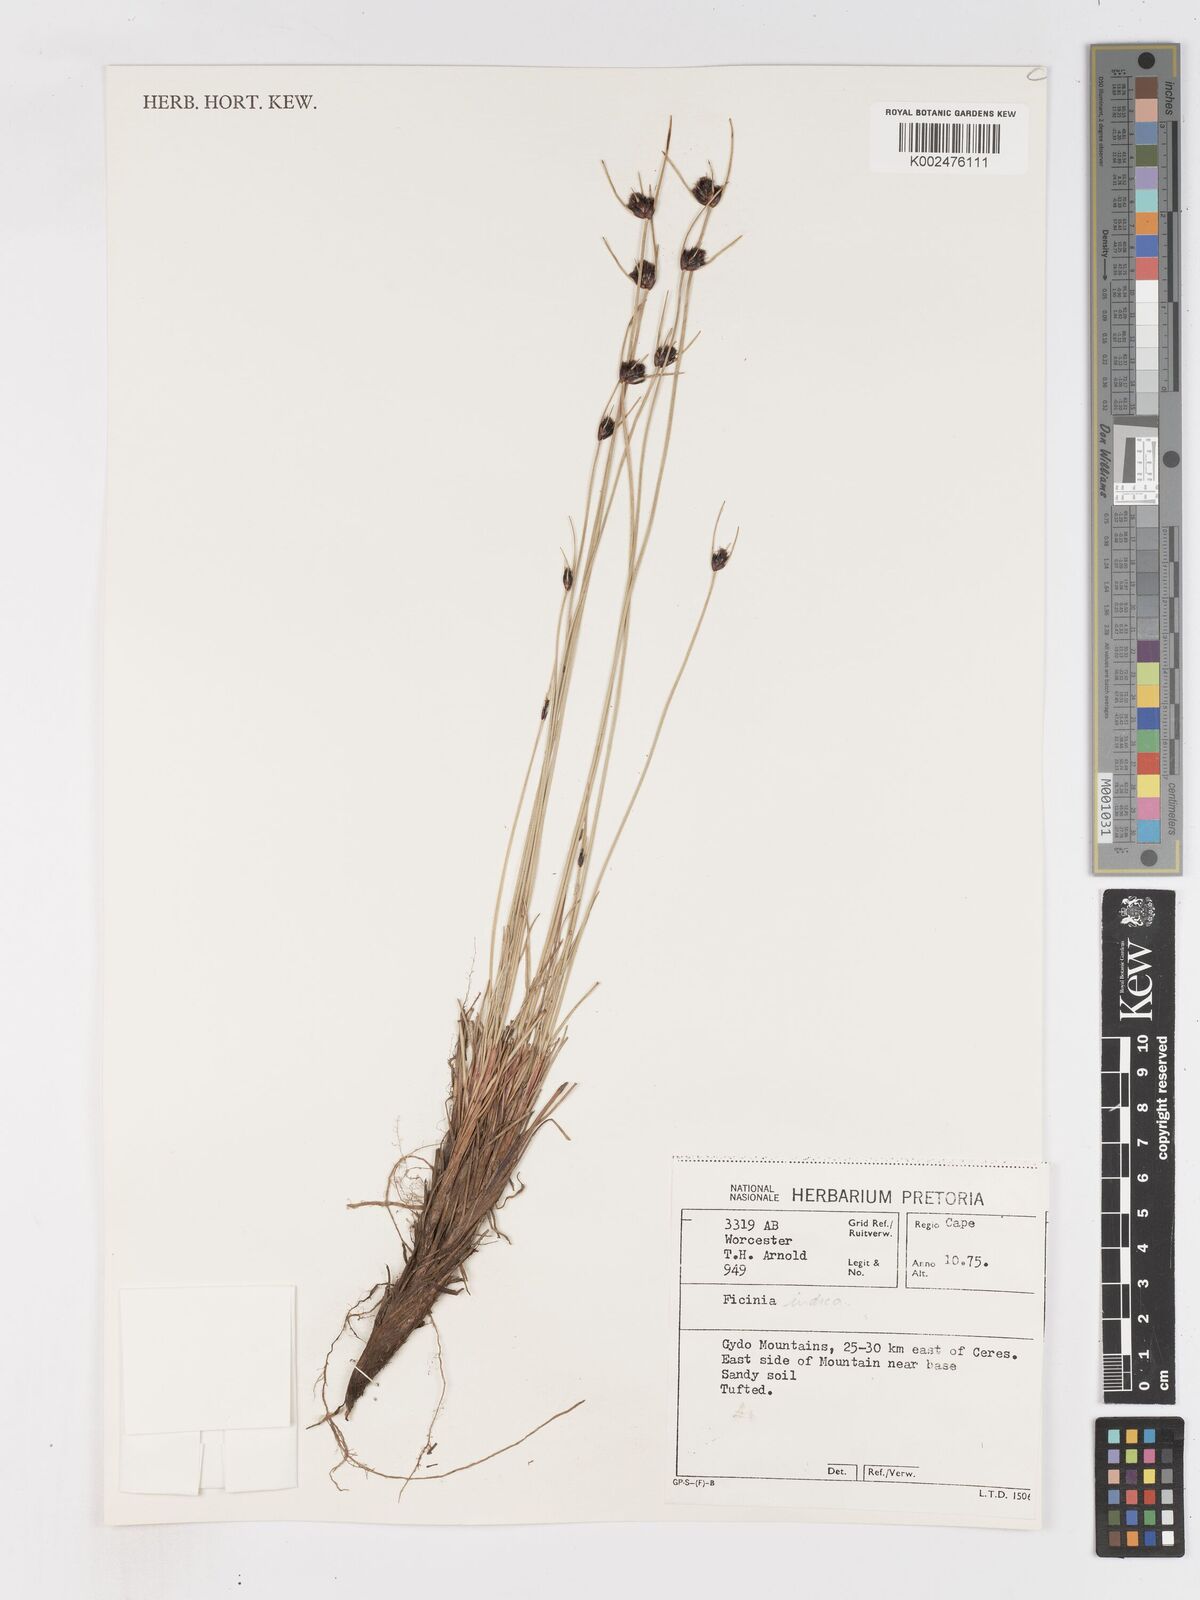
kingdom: Plantae
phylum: Tracheophyta
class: Liliopsida
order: Poales
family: Cyperaceae
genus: Ficinia
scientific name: Ficinia indica
